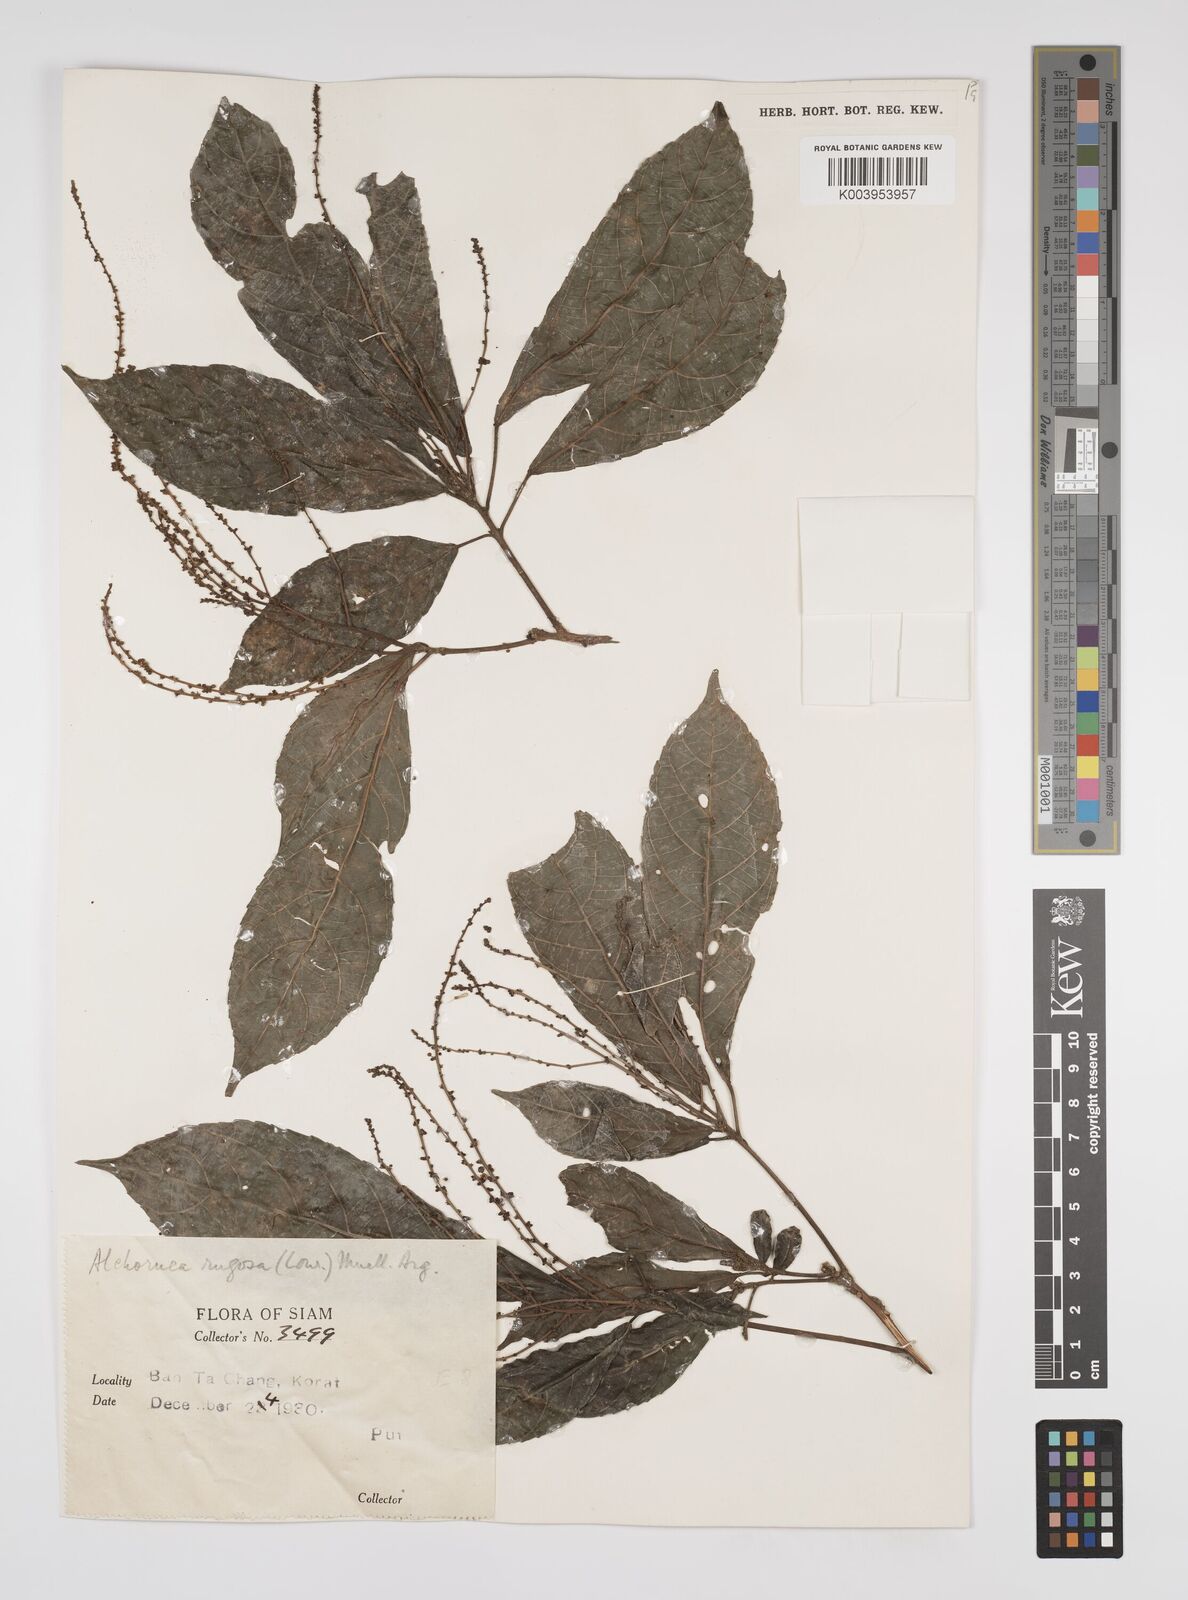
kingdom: Plantae
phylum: Tracheophyta
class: Magnoliopsida
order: Malpighiales
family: Euphorbiaceae
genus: Alchornea
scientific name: Alchornea rugosa
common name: Alchorntree
